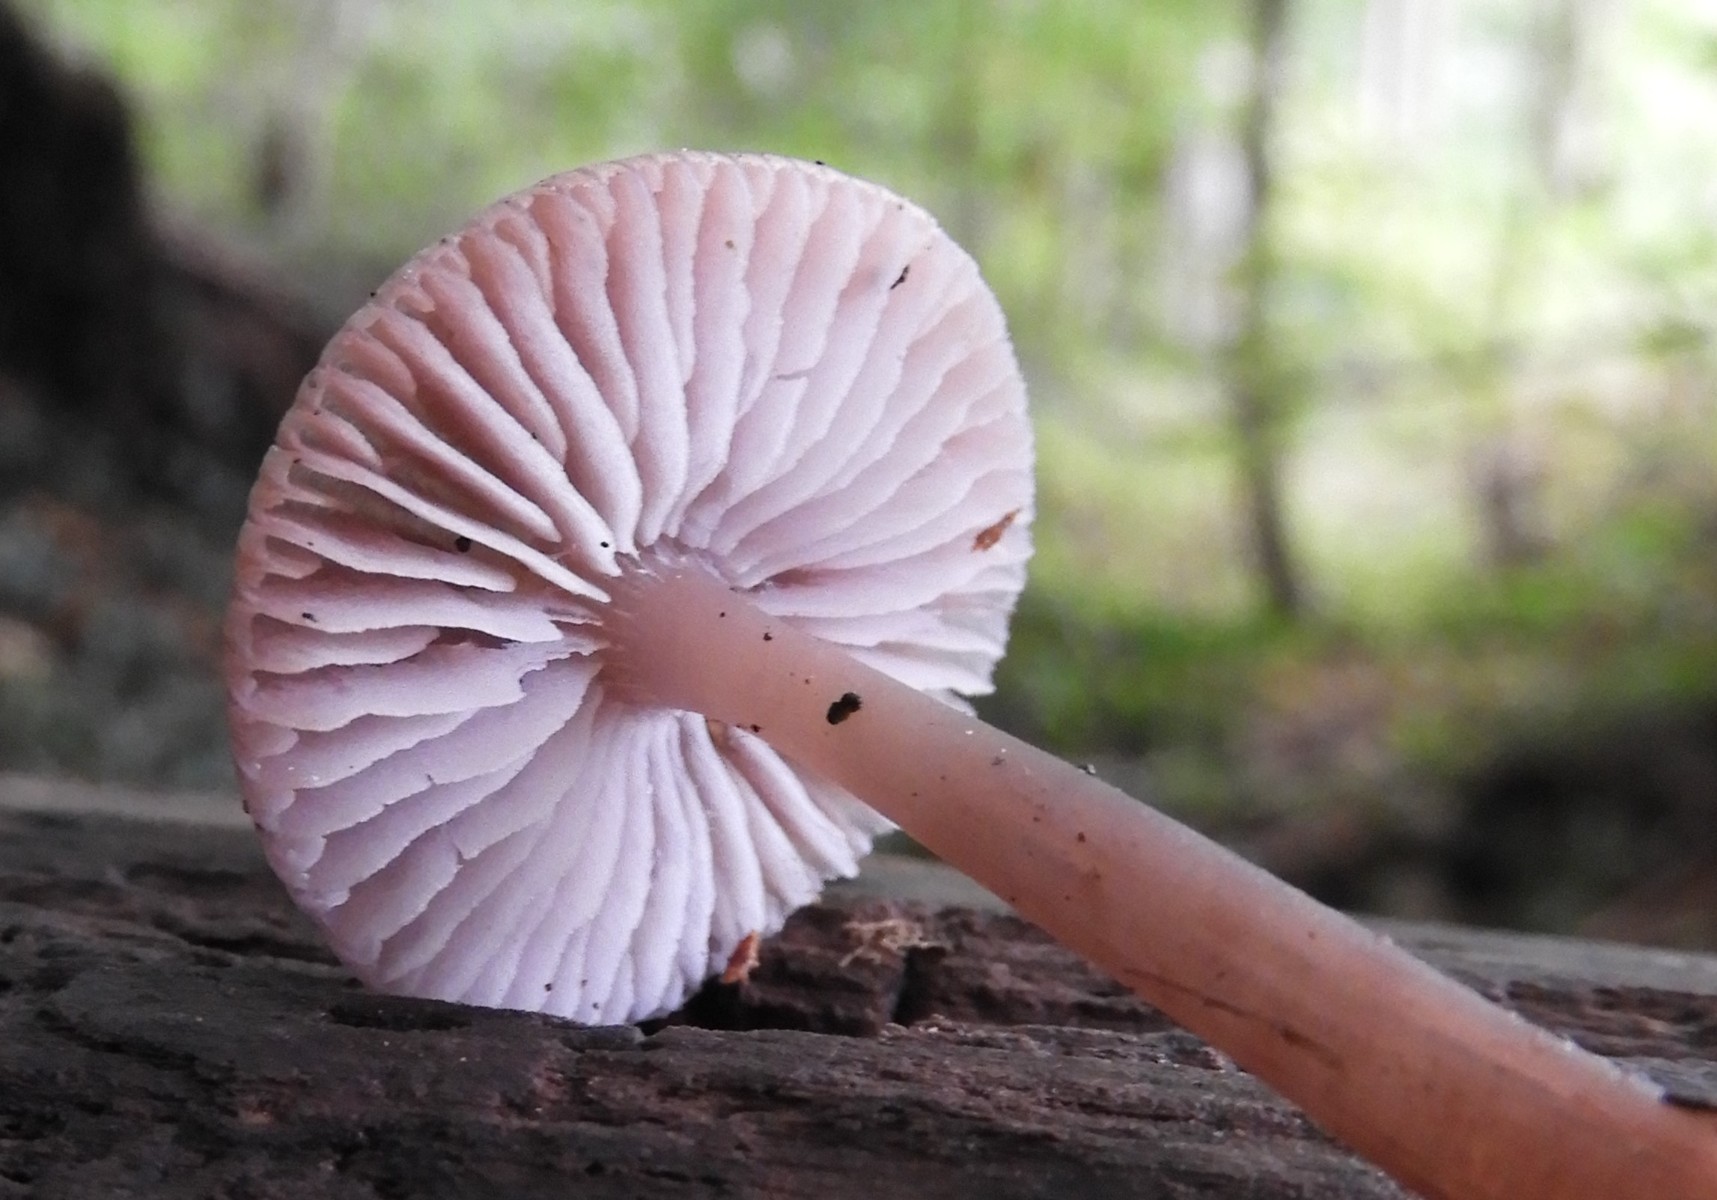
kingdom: Fungi
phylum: Basidiomycota
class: Agaricomycetes
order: Agaricales
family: Mycenaceae
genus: Mycena
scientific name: Mycena rosea
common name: rosa huesvamp
